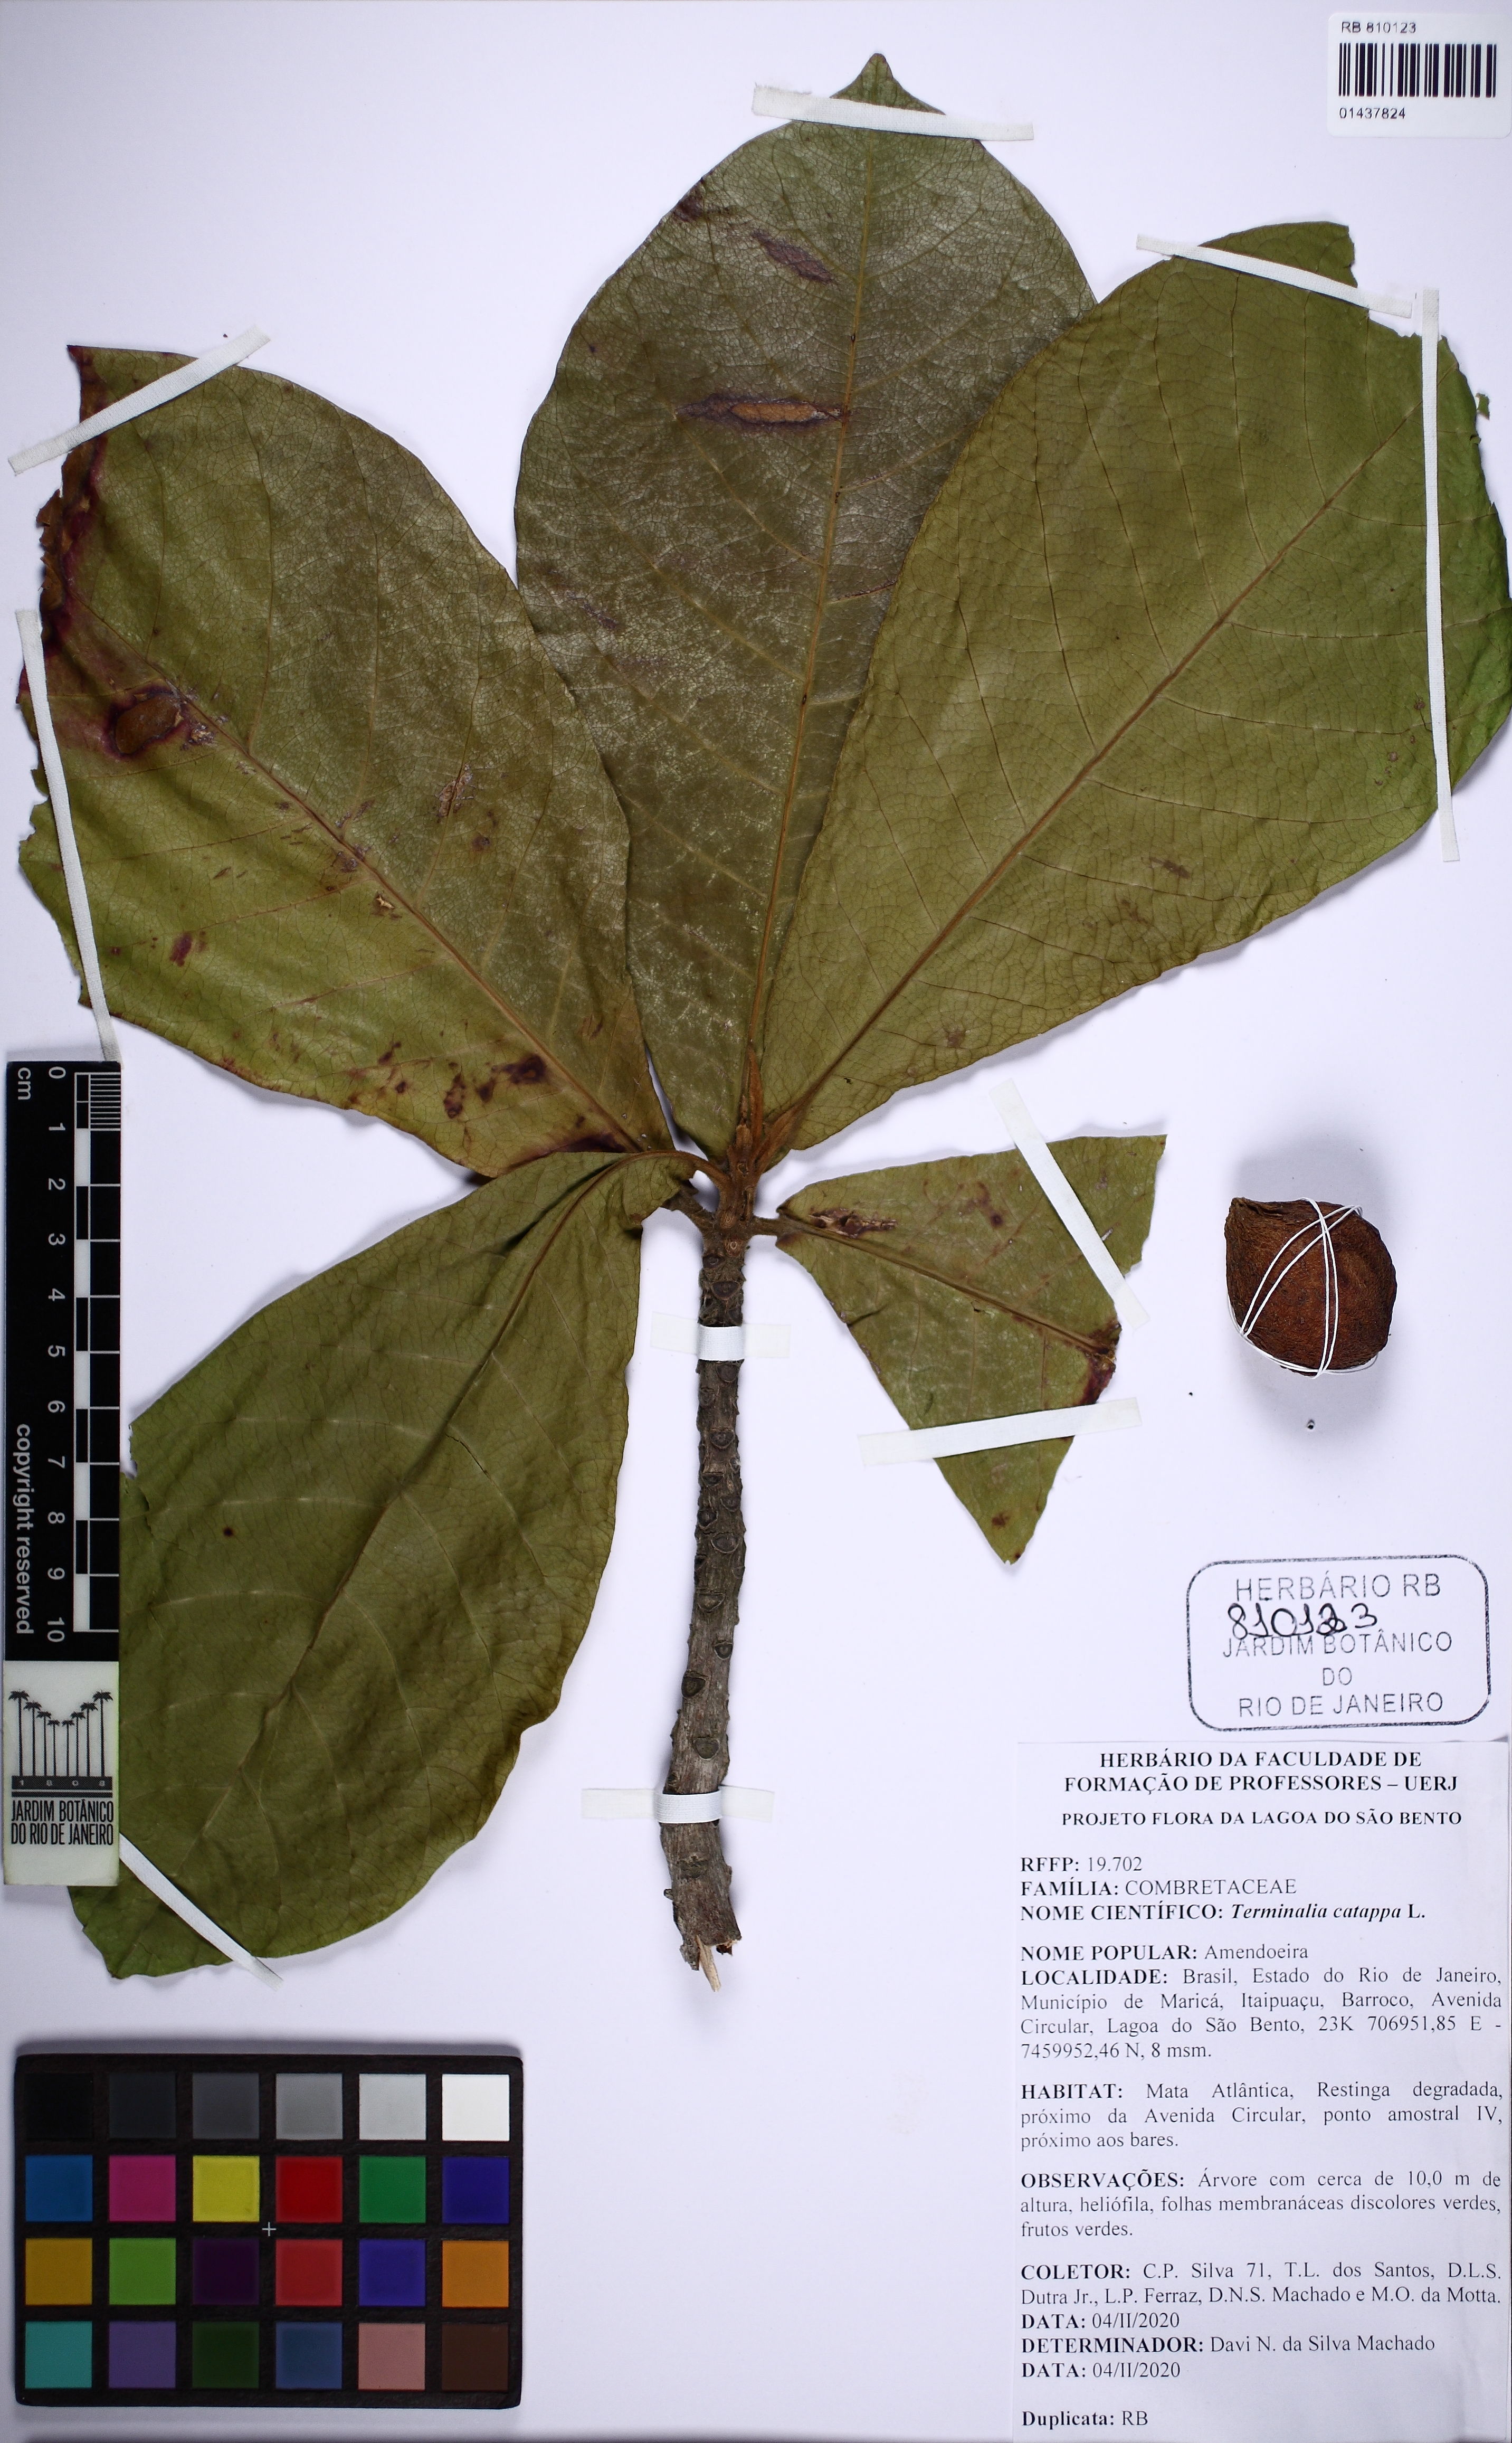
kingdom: Plantae
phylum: Tracheophyta
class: Magnoliopsida
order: Myrtales
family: Combretaceae
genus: Terminalia
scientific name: Terminalia catappa
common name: Tropical almond
